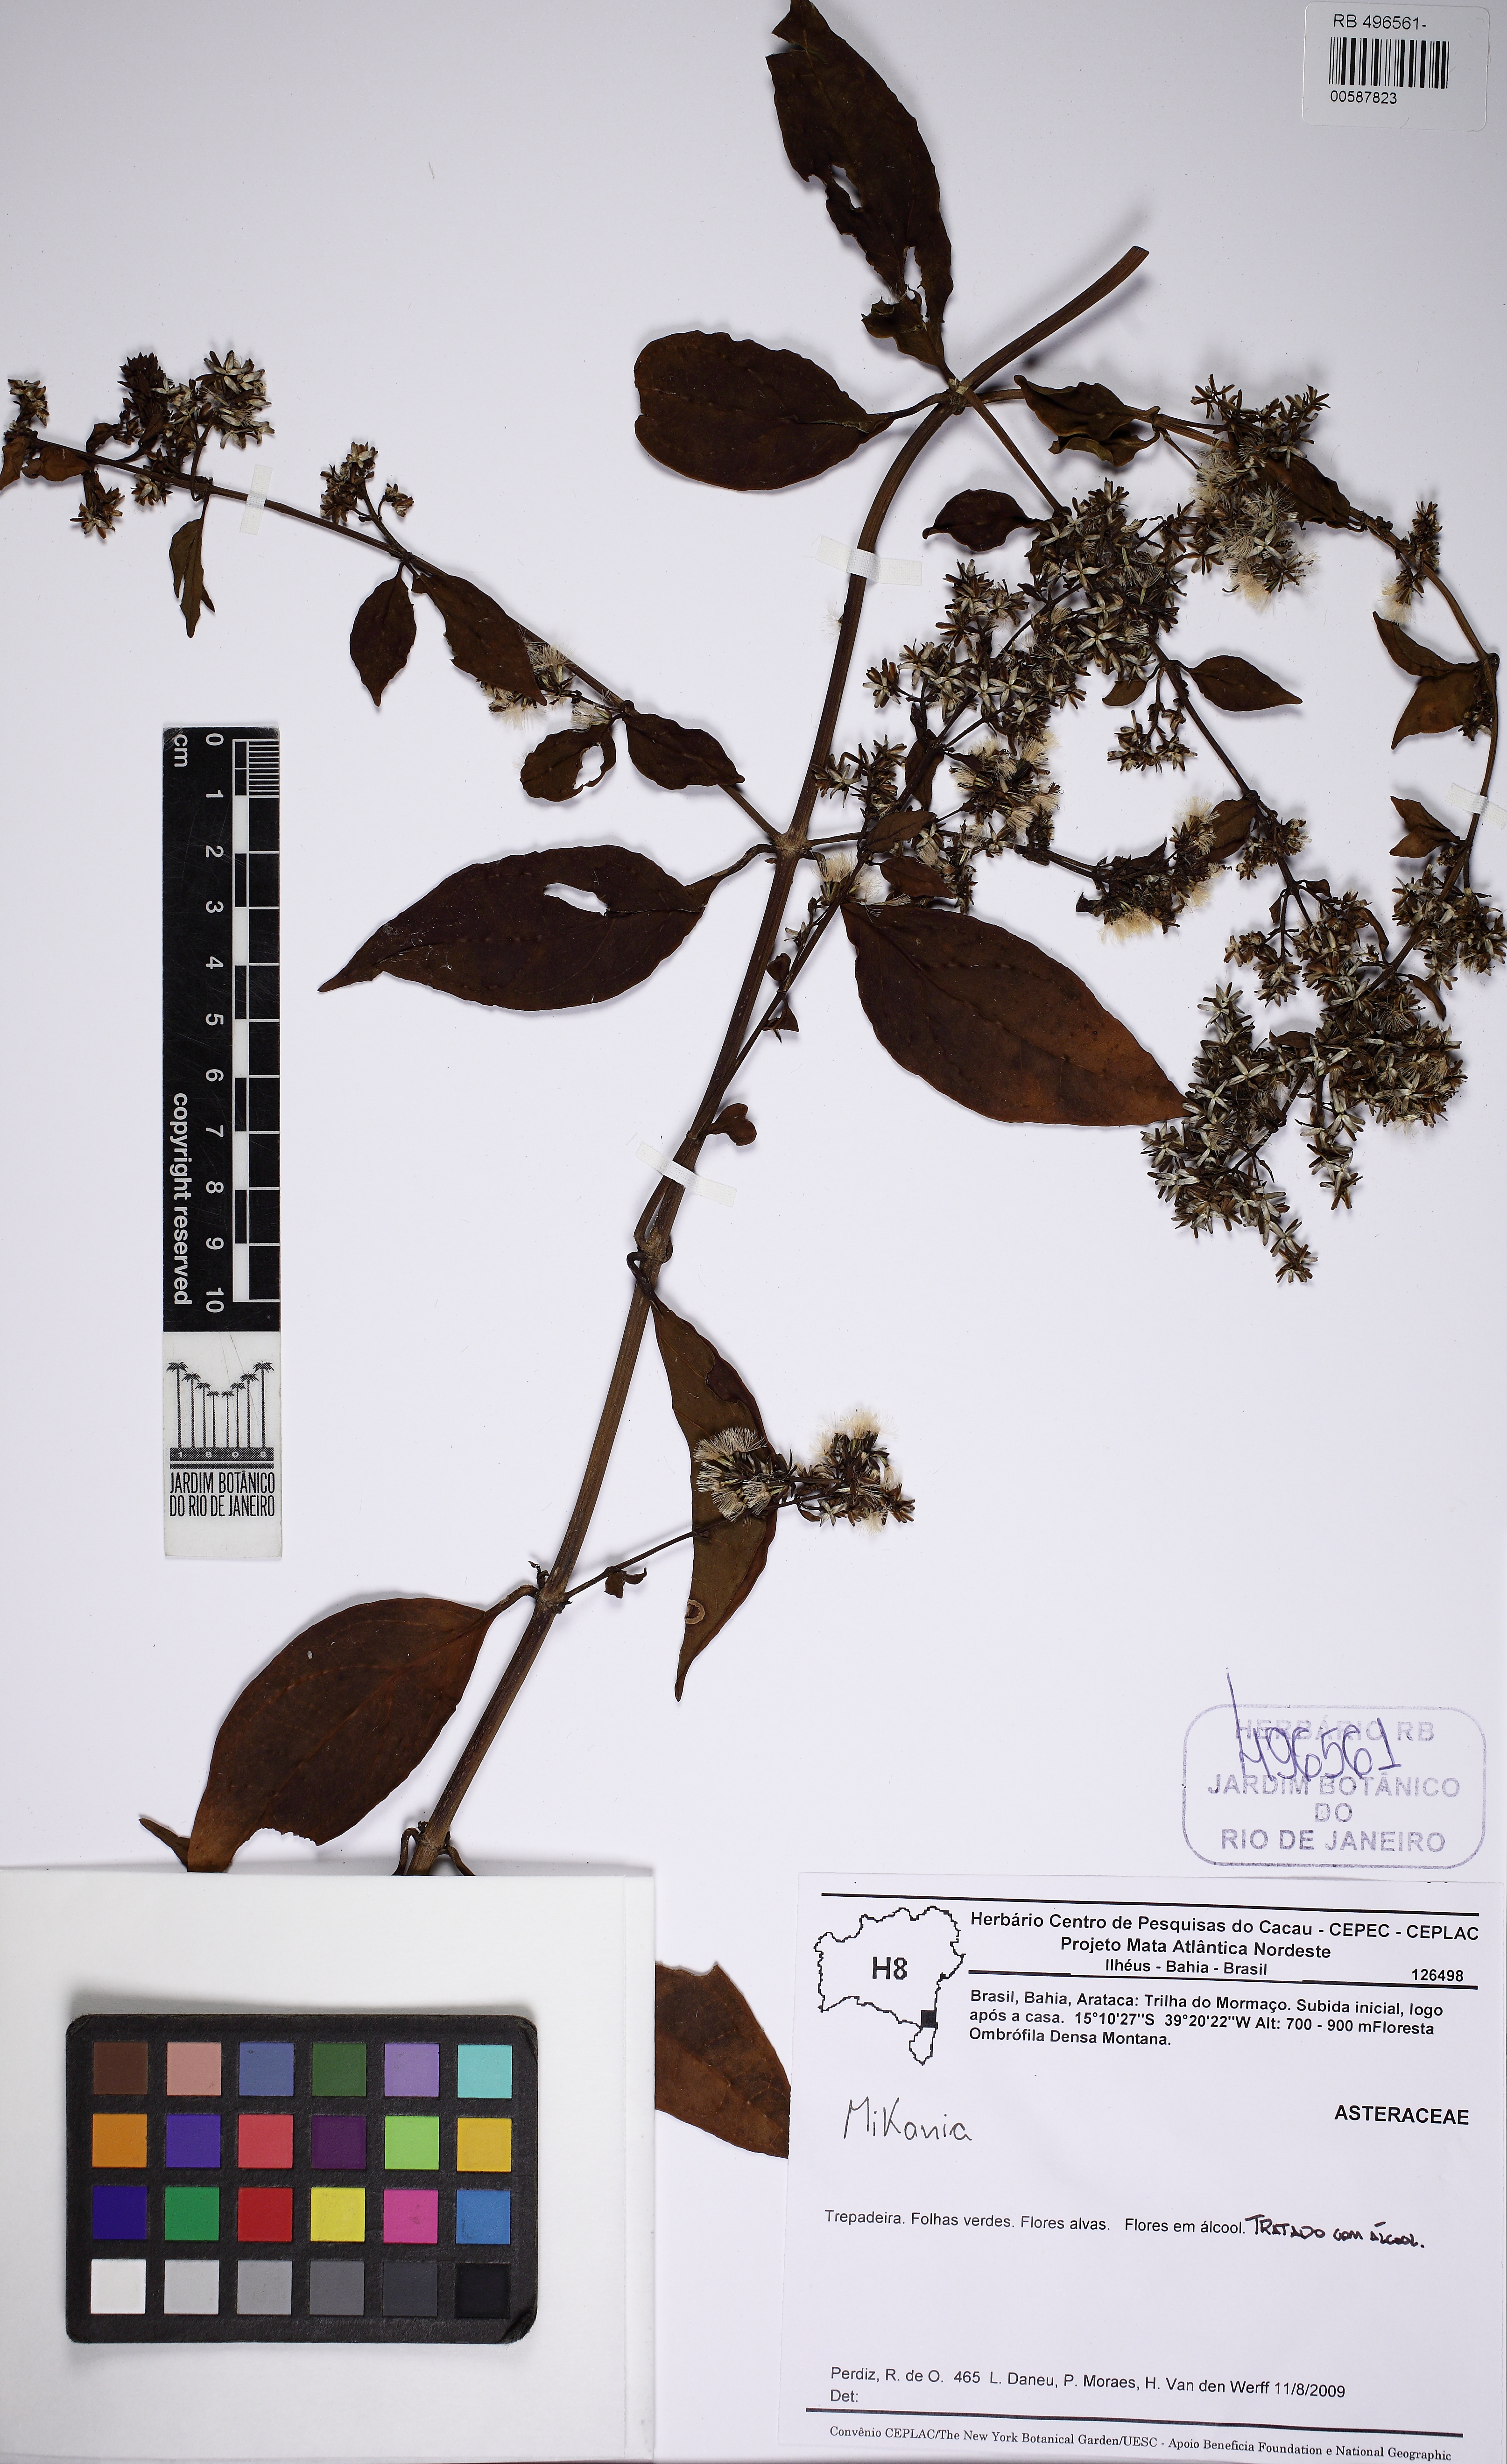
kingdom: Plantae
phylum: Tracheophyta
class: Magnoliopsida
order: Asterales
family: Asteraceae
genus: Mikania
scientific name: Mikania nigricans
